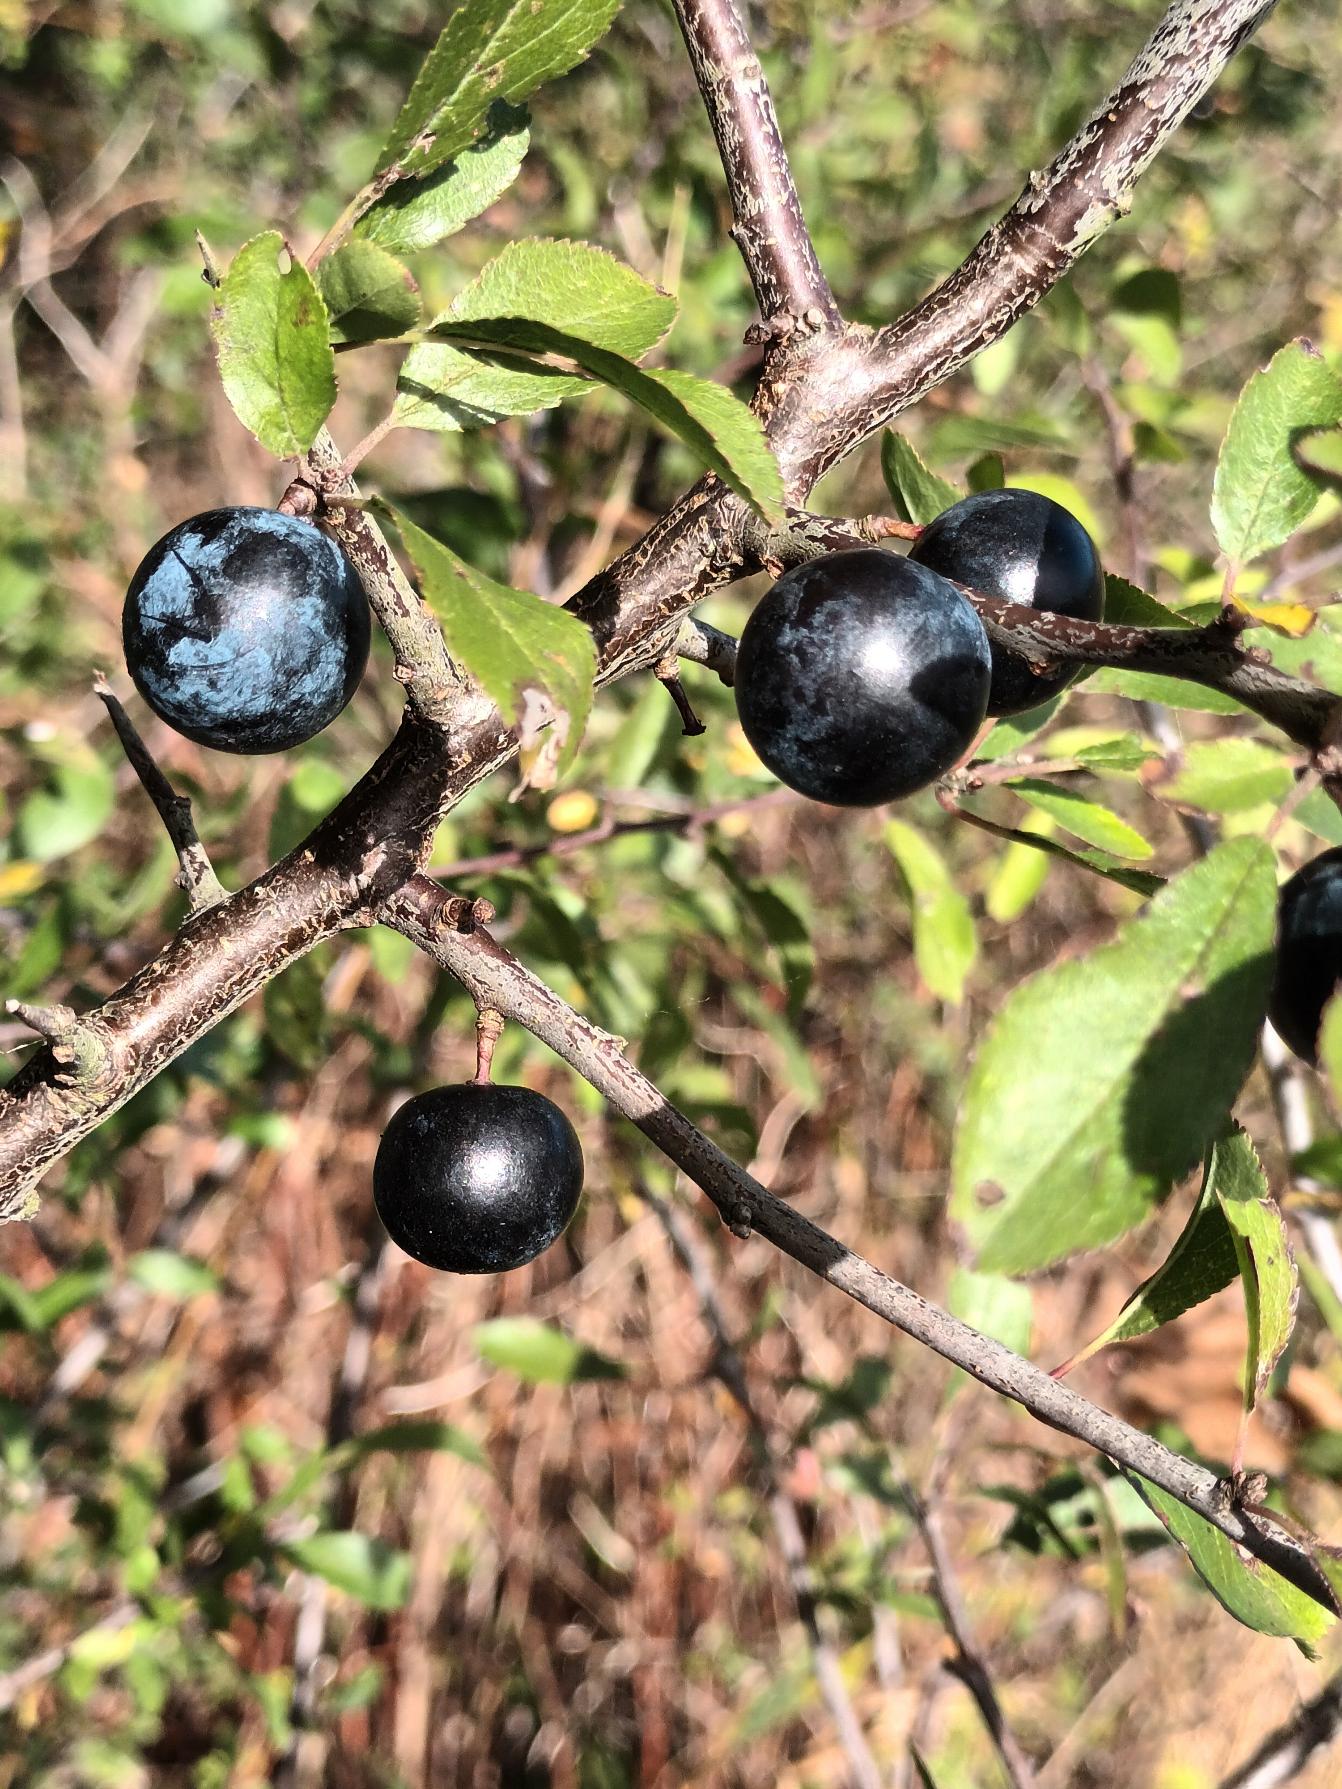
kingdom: Plantae
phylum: Tracheophyta
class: Magnoliopsida
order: Rosales
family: Rosaceae
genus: Prunus
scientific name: Prunus spinosa
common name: Slåen
